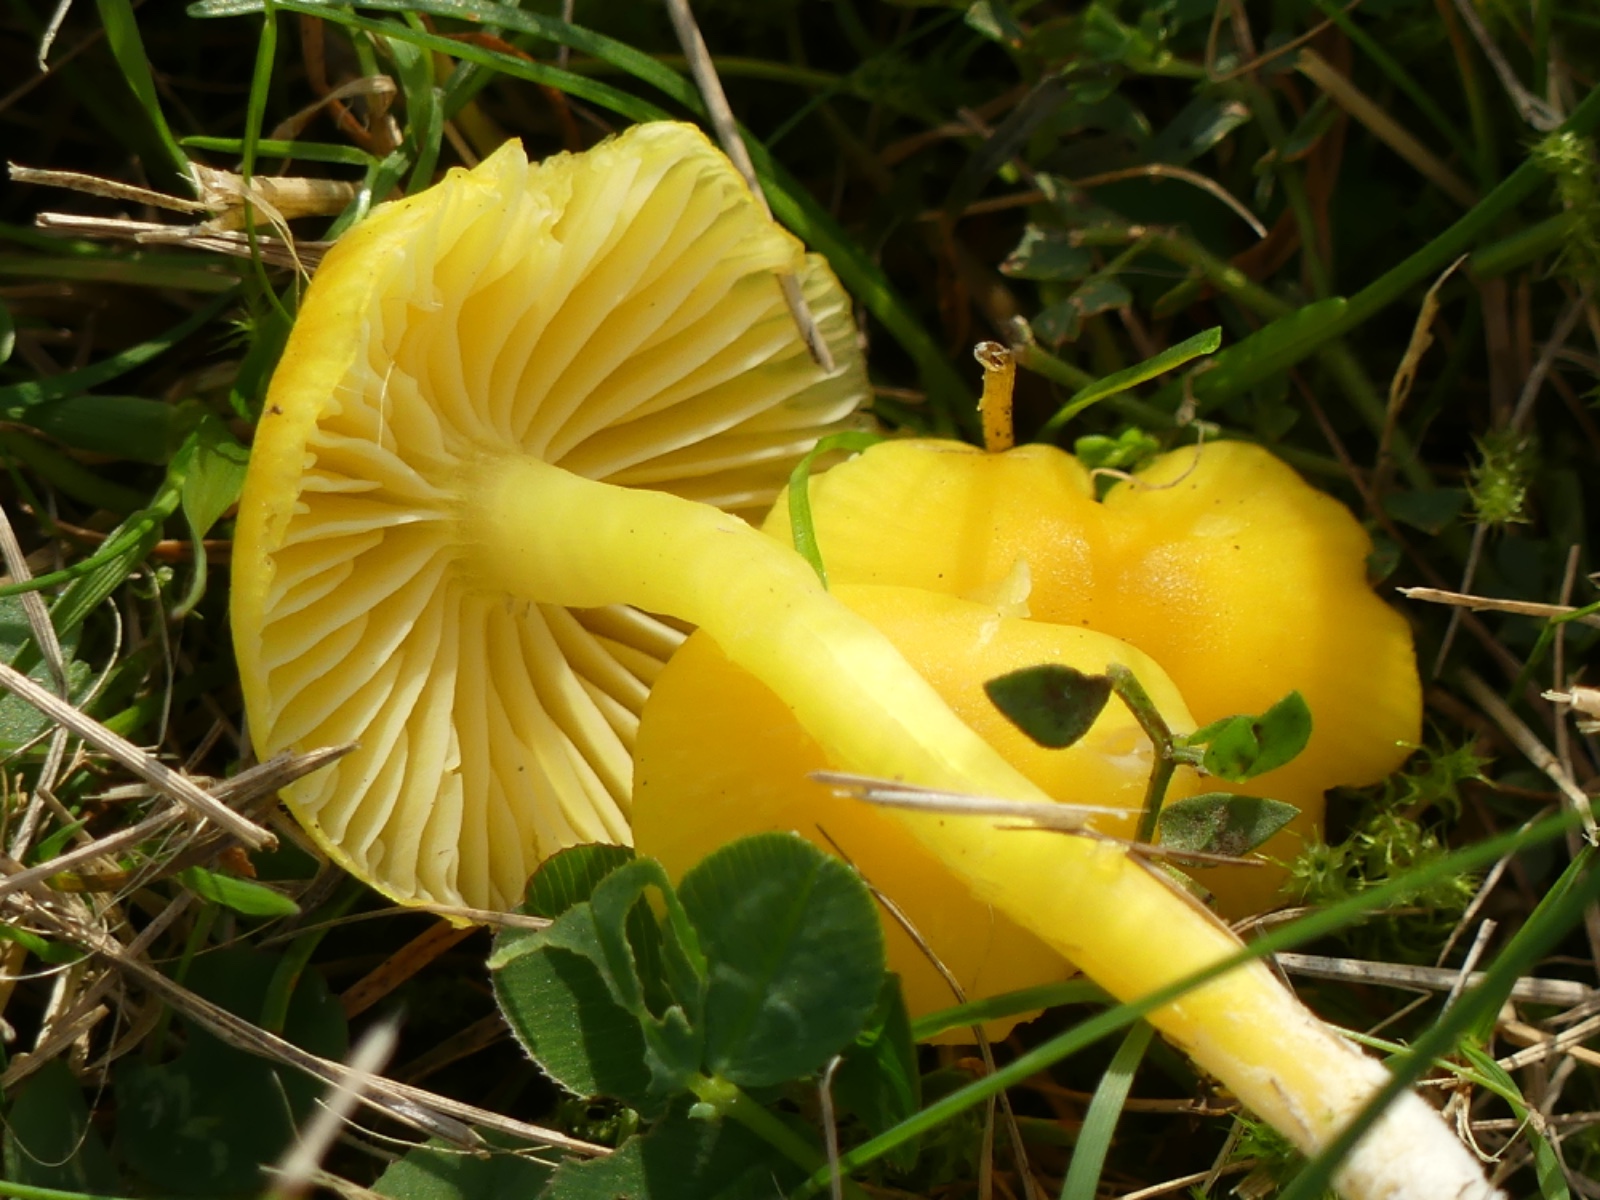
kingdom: Fungi
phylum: Basidiomycota
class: Agaricomycetes
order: Agaricales
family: Hygrophoraceae
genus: Hygrocybe
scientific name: Hygrocybe ceracea
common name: voksgul vokshat
